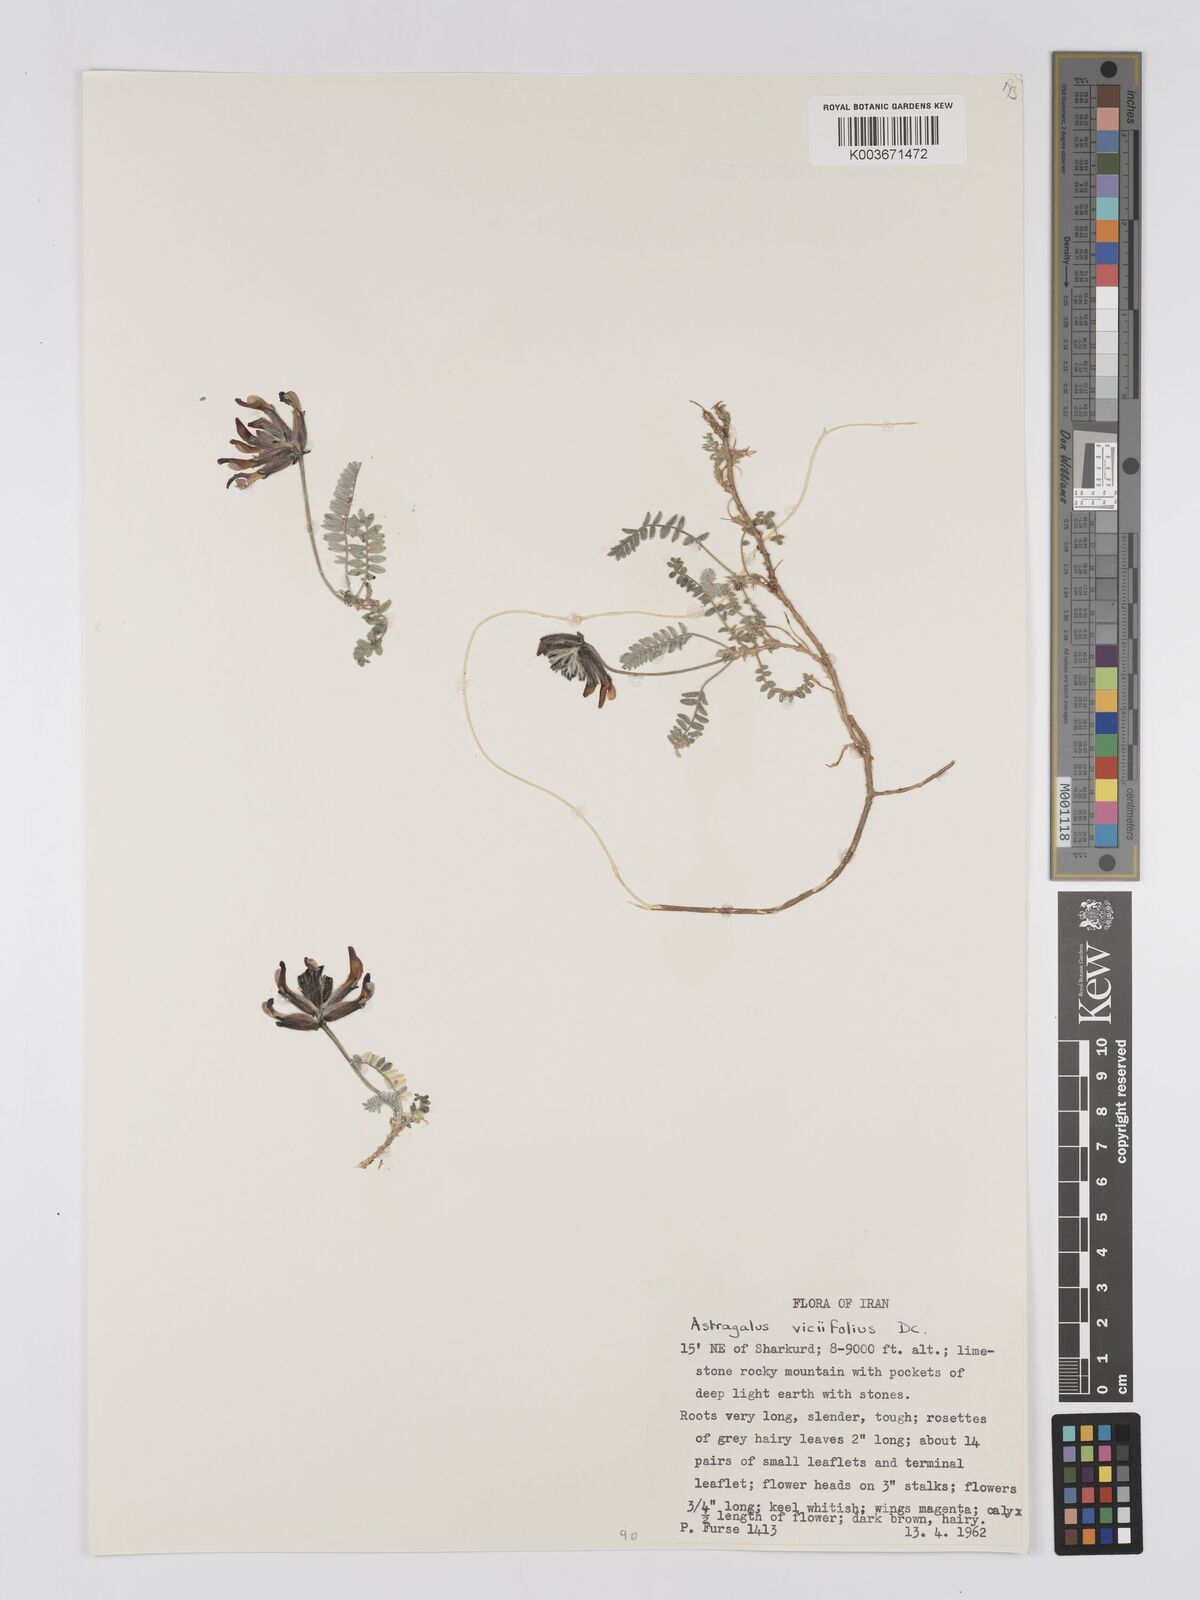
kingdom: Plantae
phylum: Tracheophyta
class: Magnoliopsida
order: Fabales
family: Fabaceae
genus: Astragalus
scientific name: Astragalus humifusus
